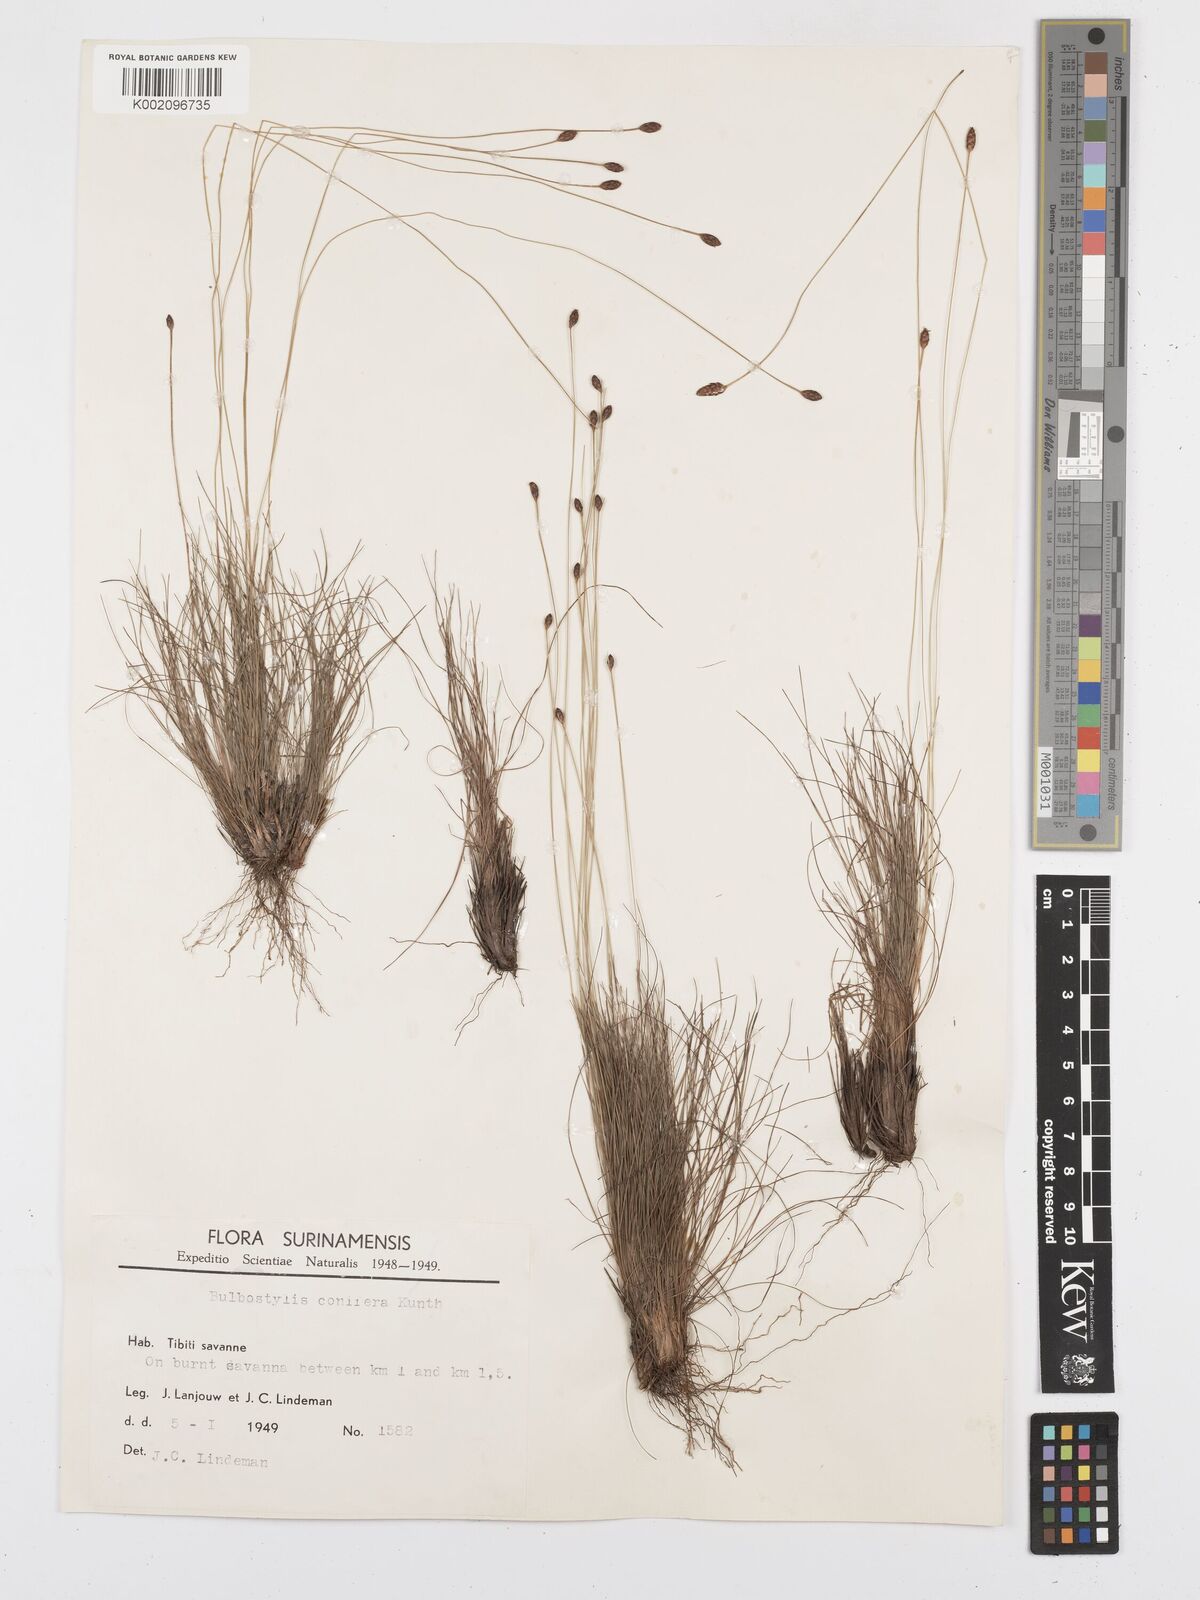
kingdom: Plantae
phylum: Tracheophyta
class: Liliopsida
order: Poales
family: Cyperaceae
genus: Bulbostylis
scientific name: Bulbostylis conifera
